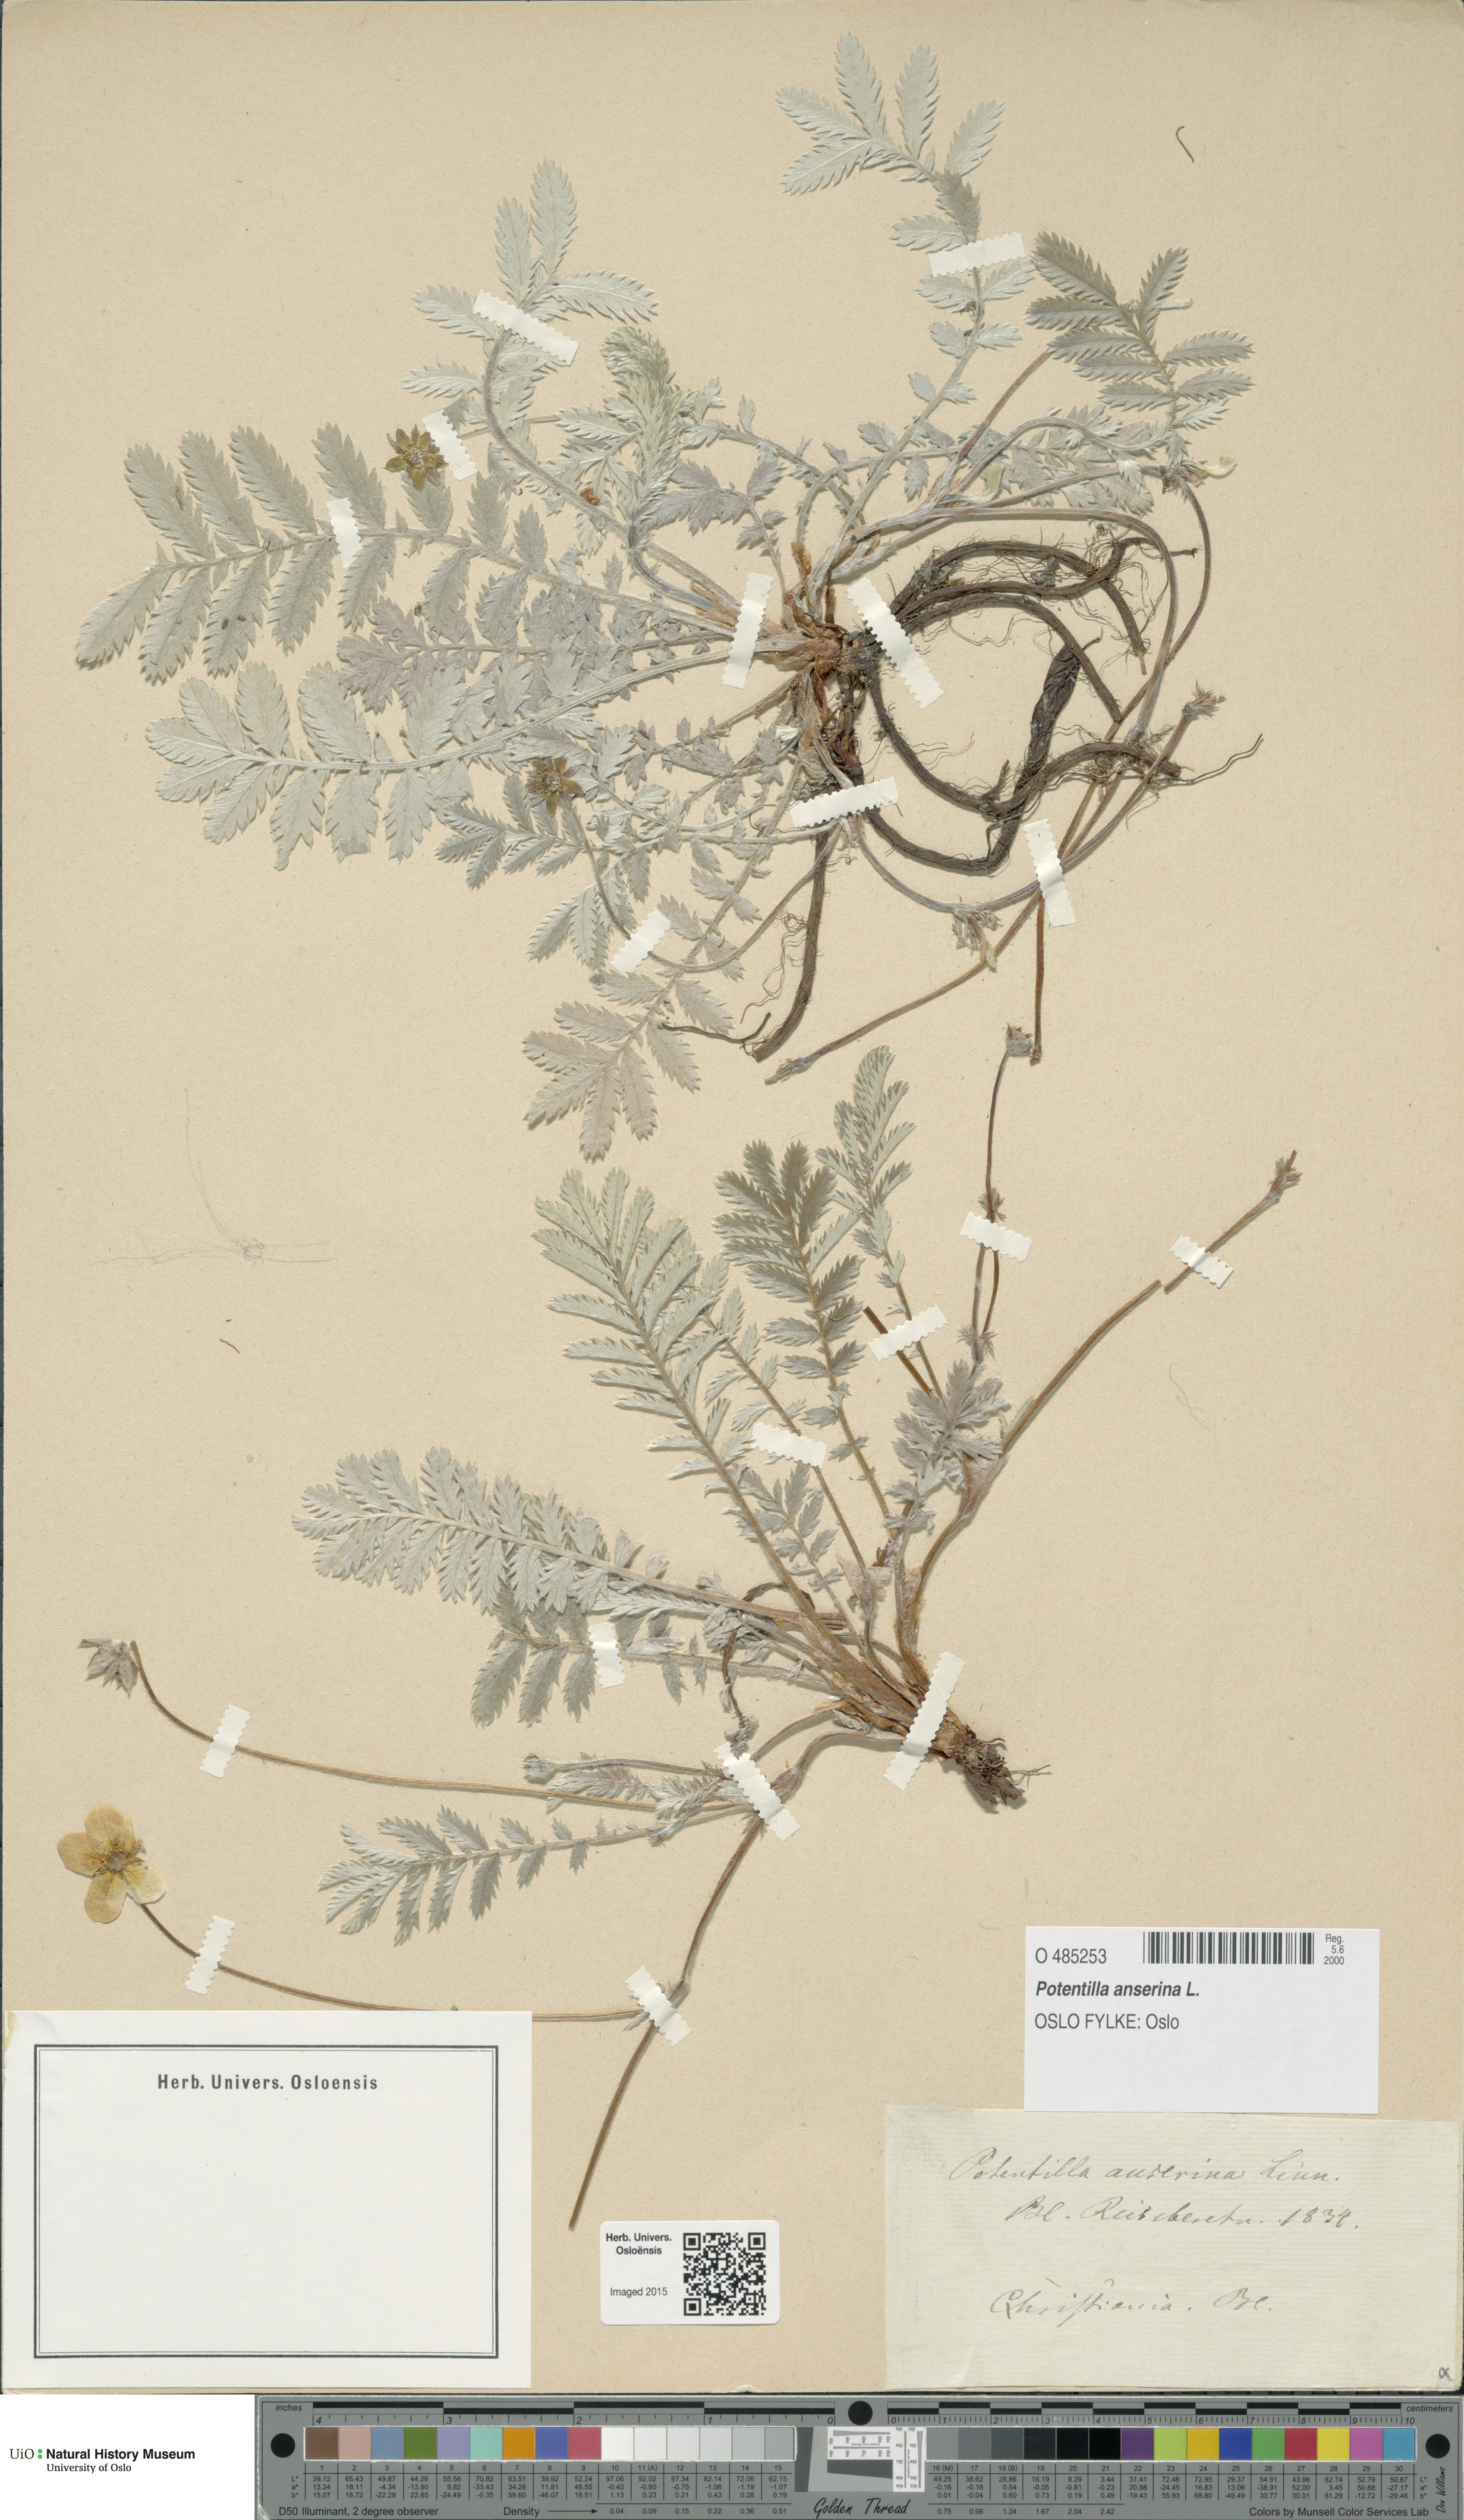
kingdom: Plantae
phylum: Tracheophyta
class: Magnoliopsida
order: Rosales
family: Rosaceae
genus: Argentina
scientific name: Argentina anserina
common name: Common silverweed
